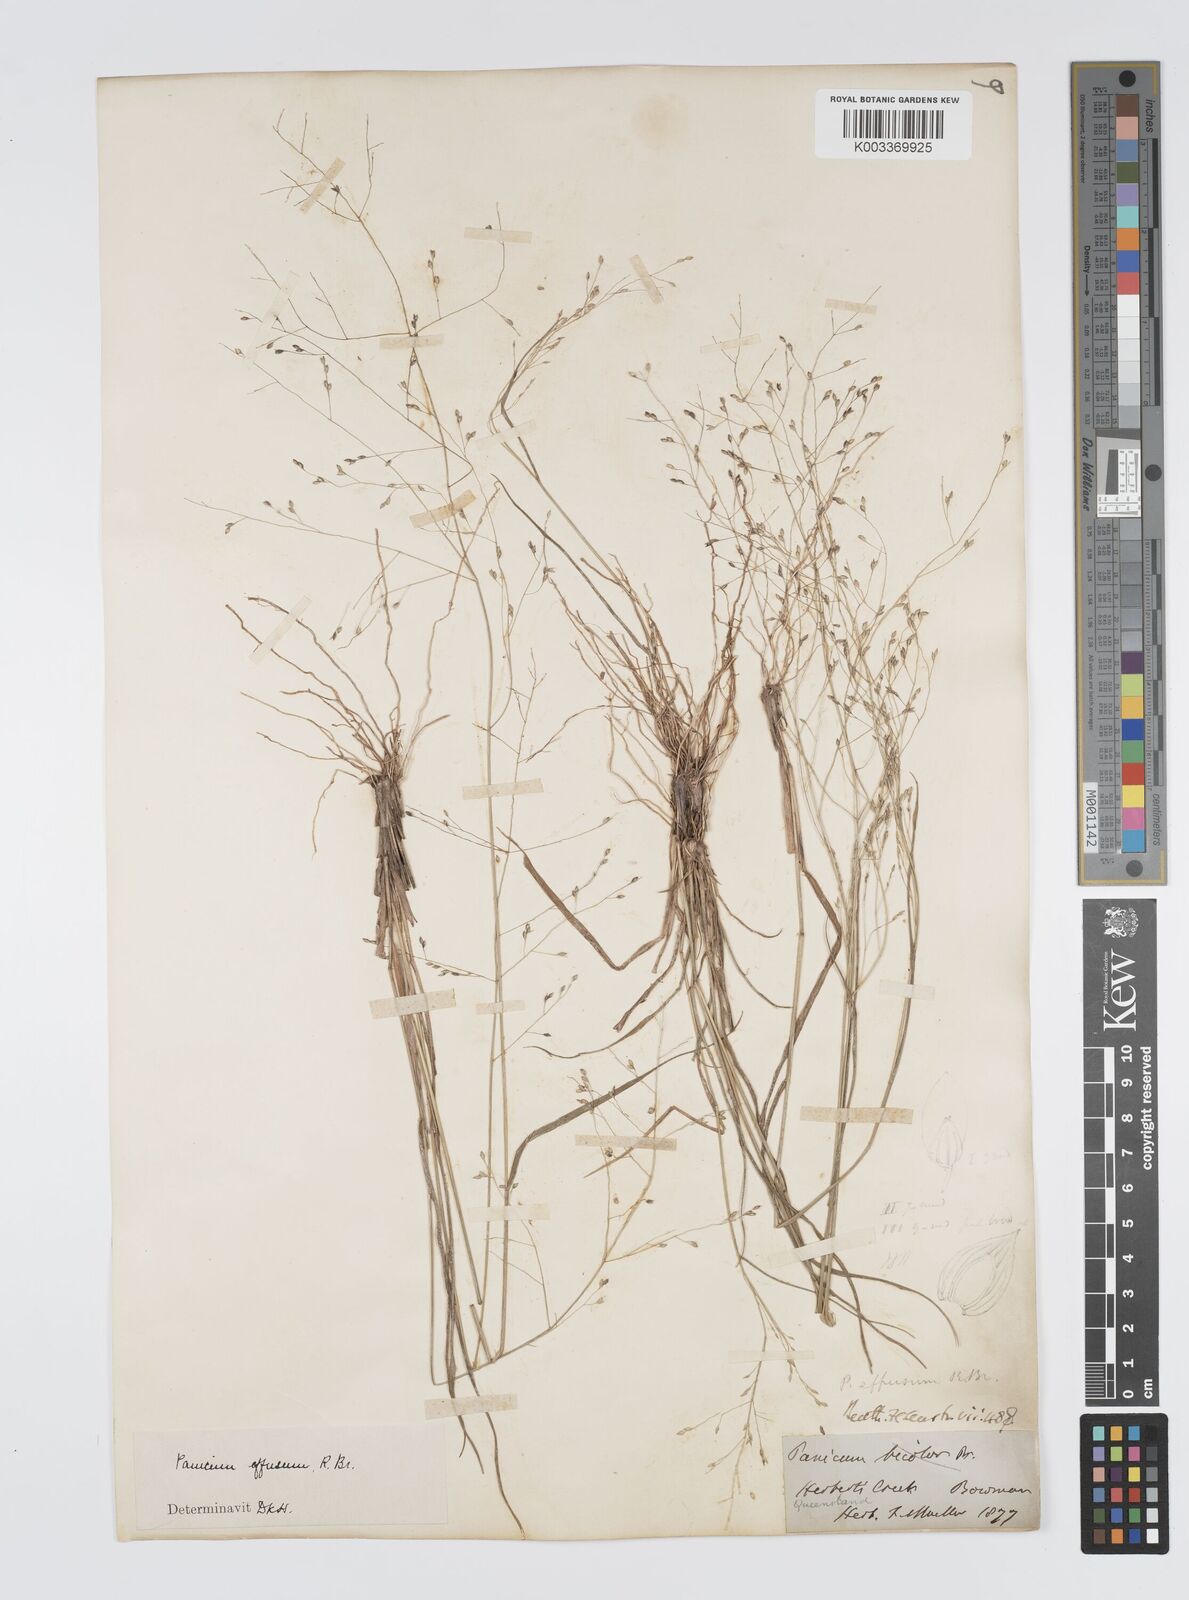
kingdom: Plantae
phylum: Tracheophyta
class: Liliopsida
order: Poales
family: Poaceae
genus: Panicum
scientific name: Panicum effusum
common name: Hairy panic grass
